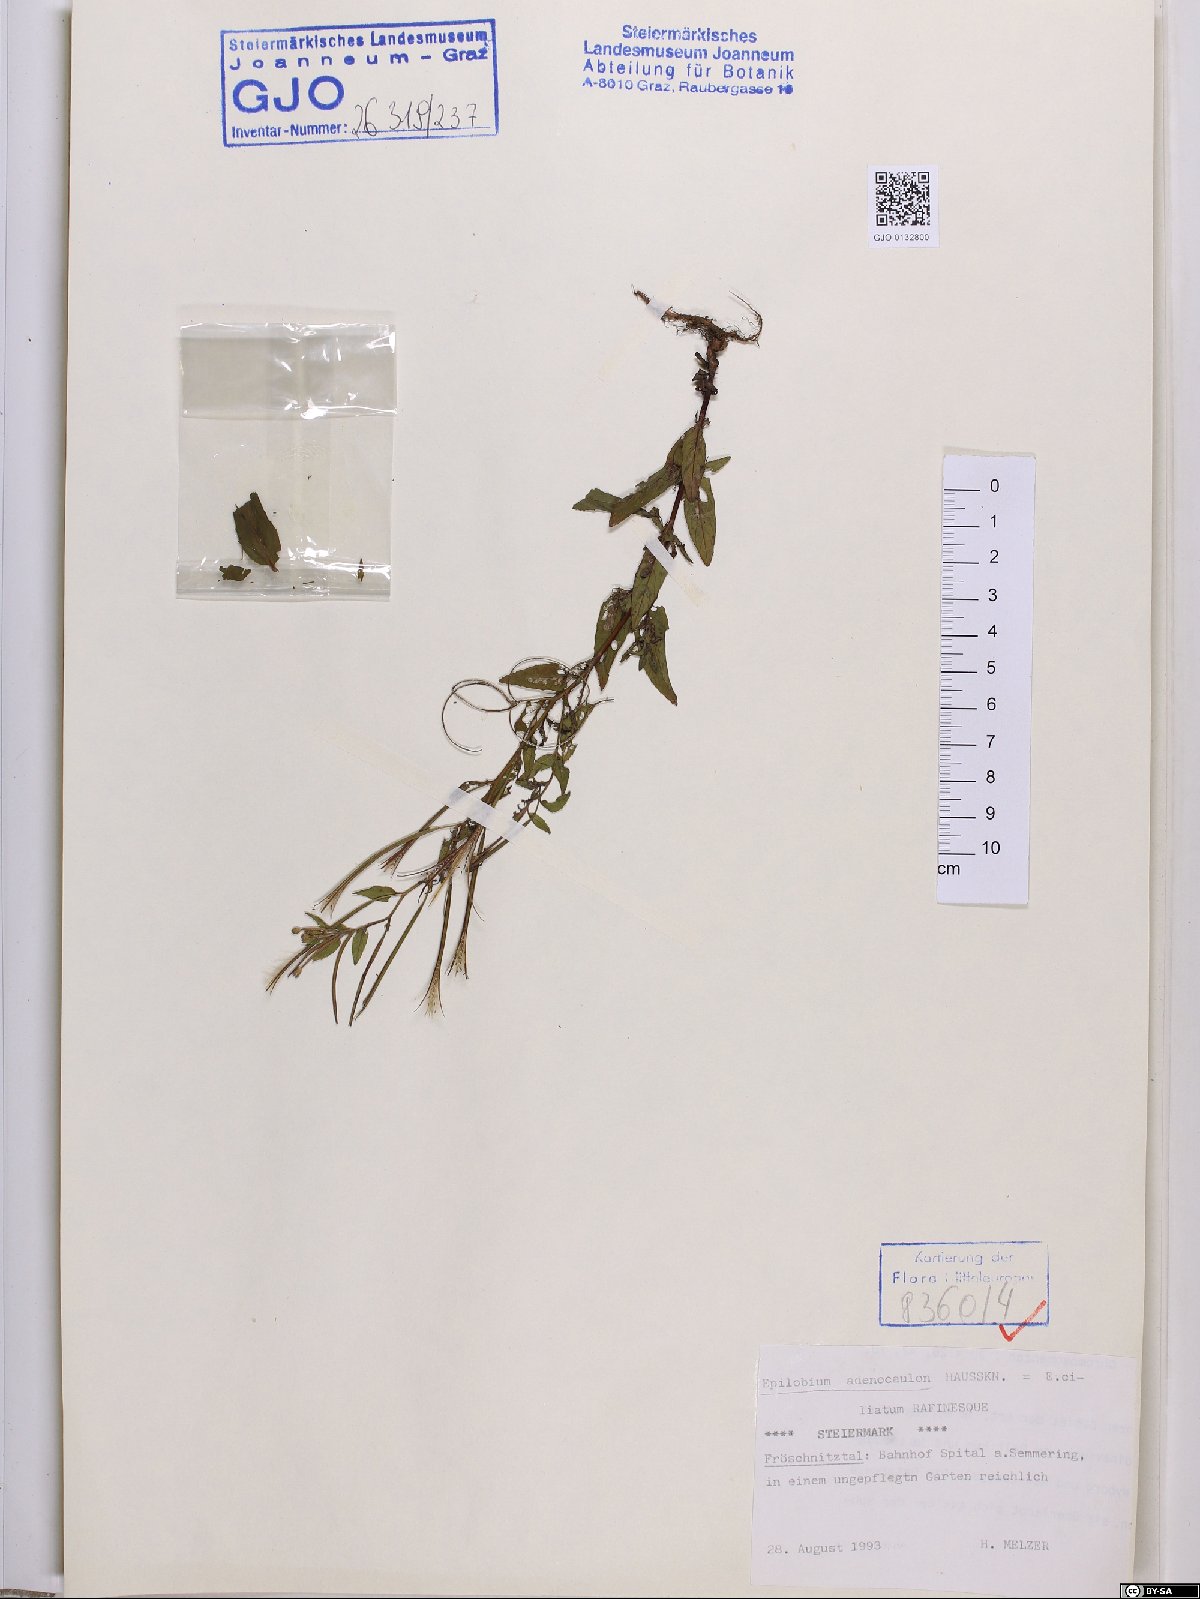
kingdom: Plantae
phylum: Tracheophyta
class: Magnoliopsida
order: Myrtales
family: Onagraceae
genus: Epilobium
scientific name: Epilobium ciliatum
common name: American willowherb
